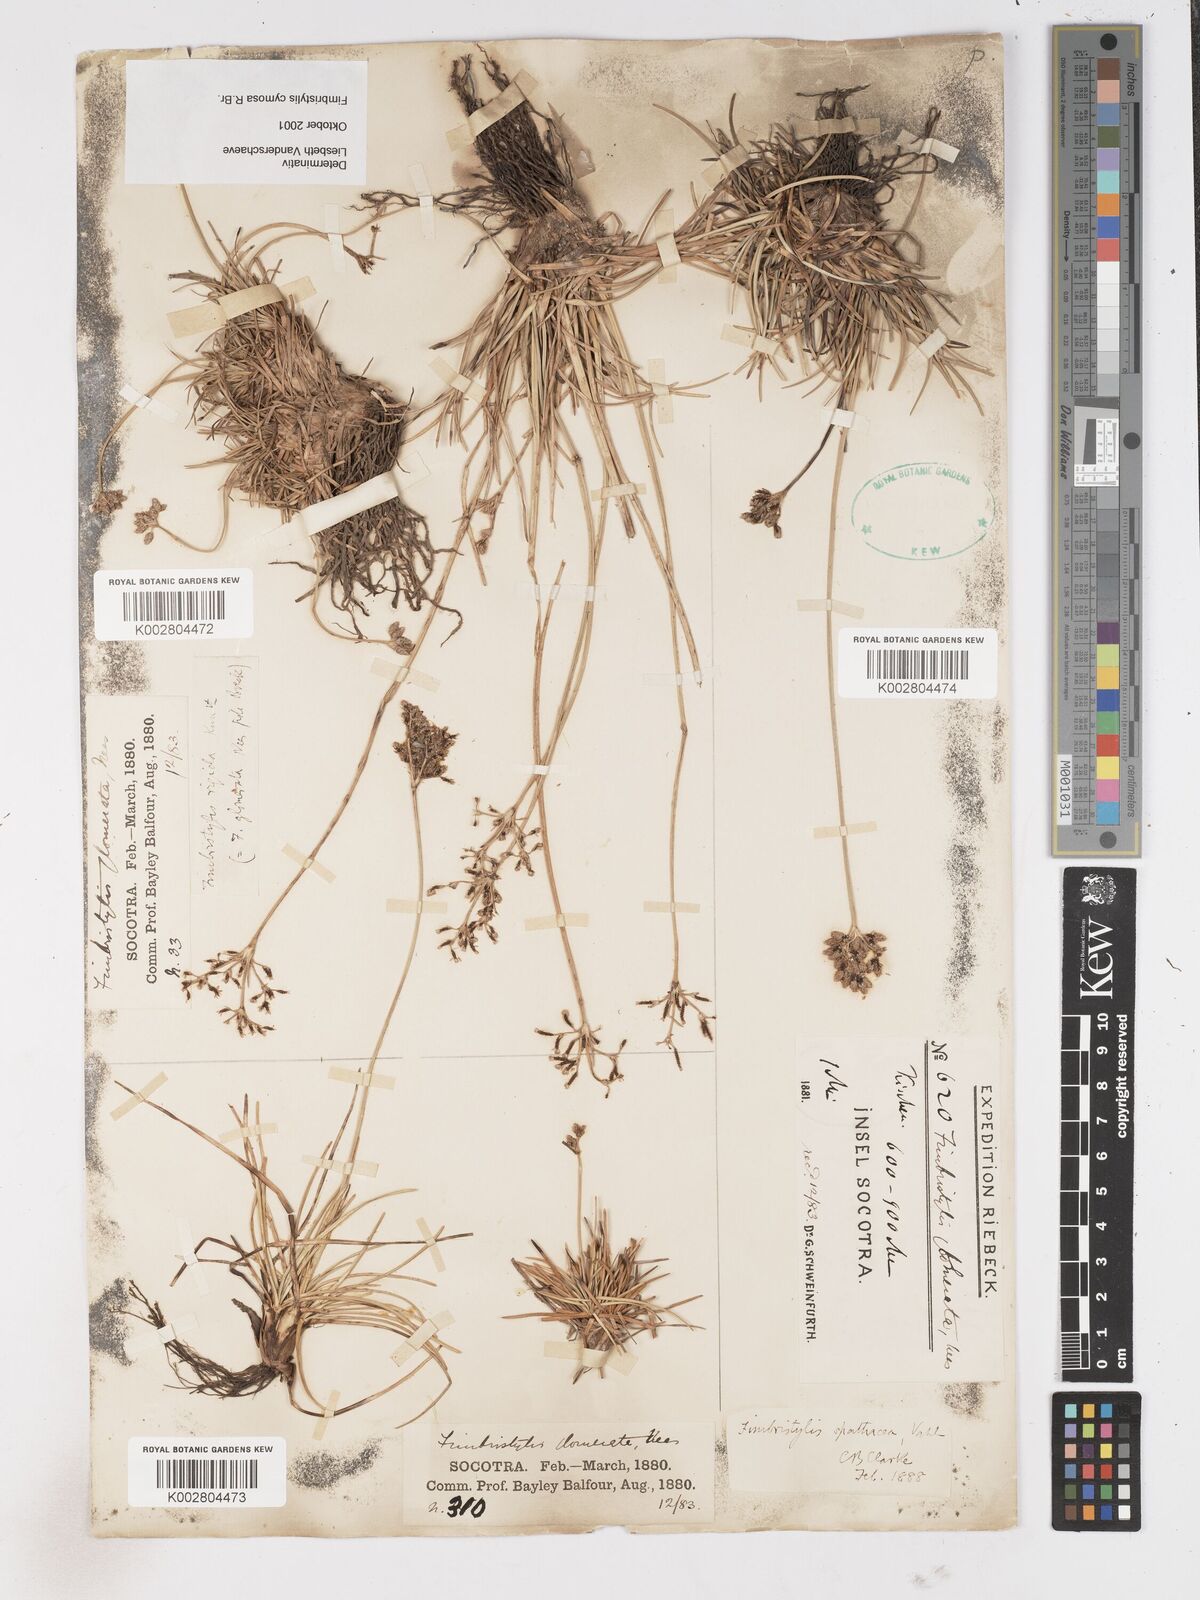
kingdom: Plantae
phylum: Tracheophyta
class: Liliopsida
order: Poales
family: Cyperaceae
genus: Fimbristylis
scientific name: Fimbristylis cymosa
